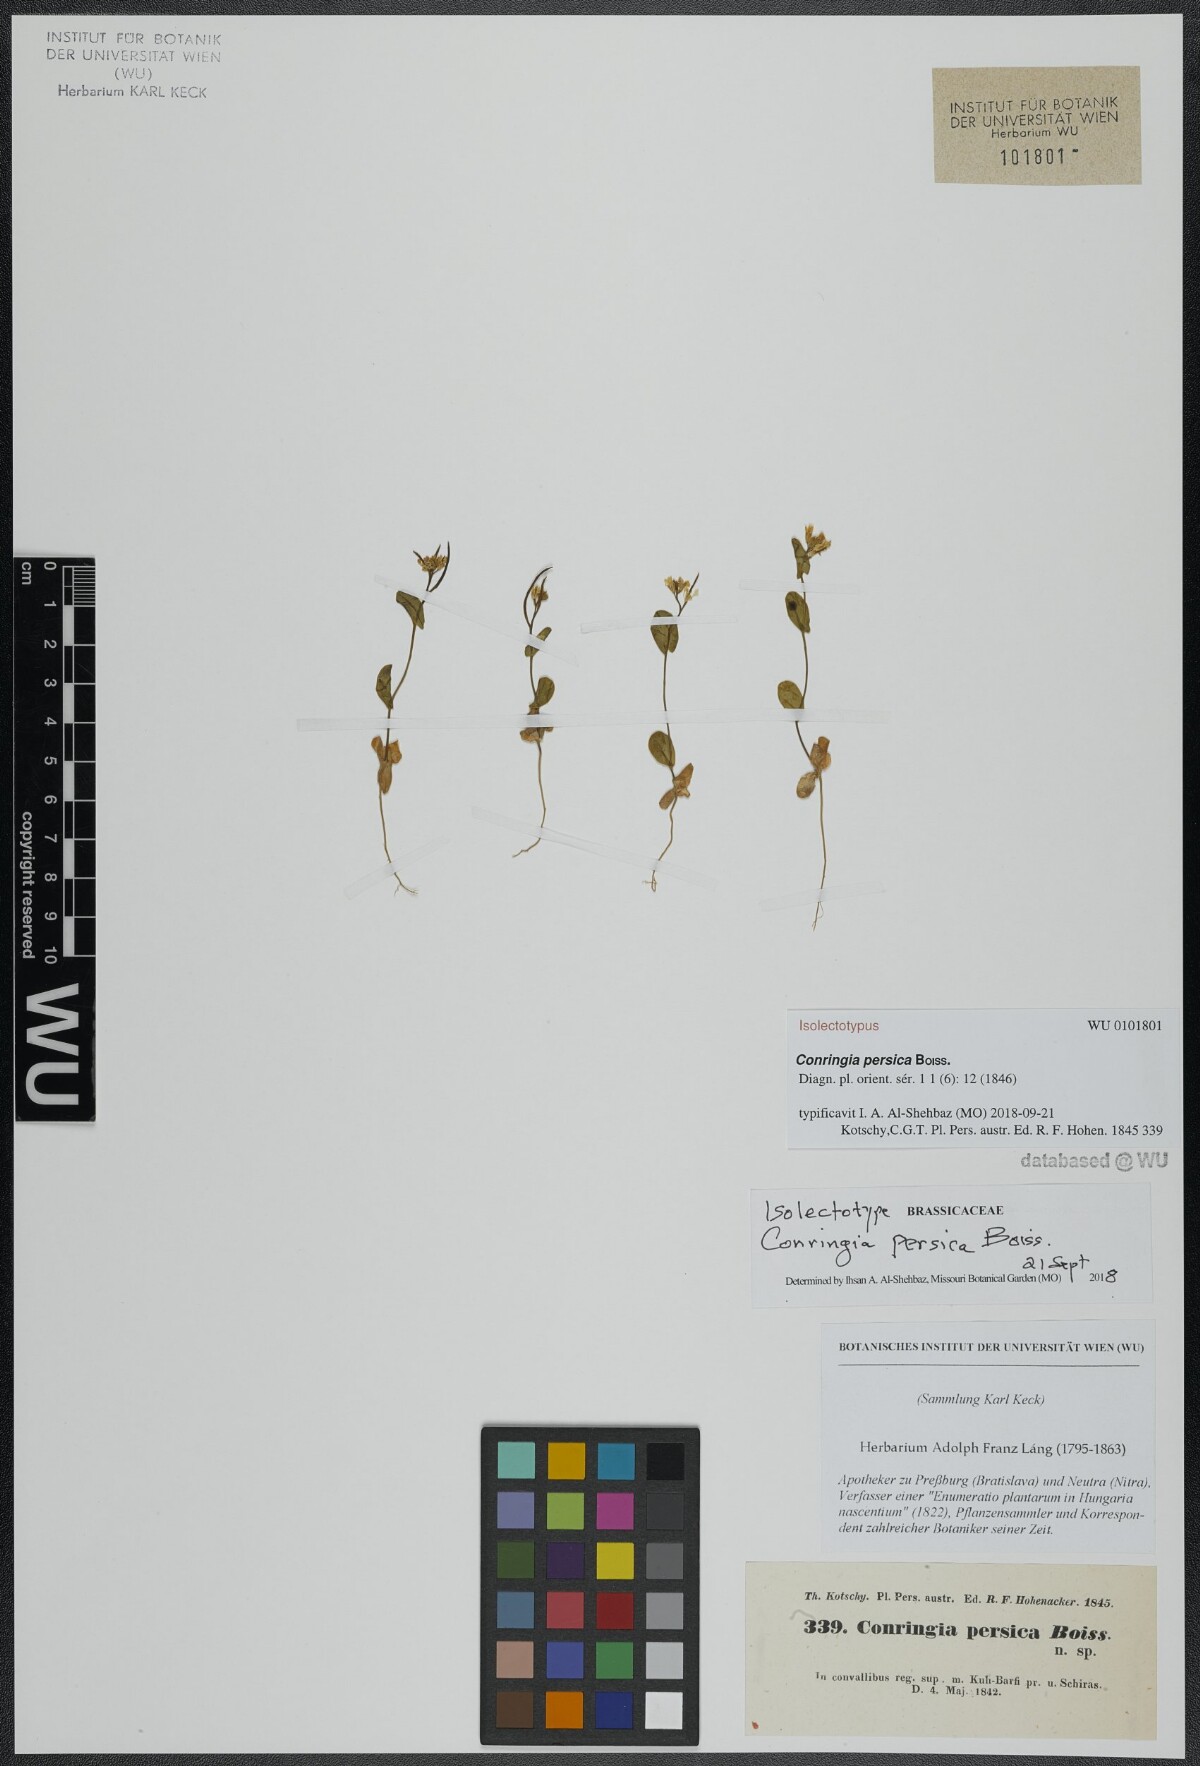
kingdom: Plantae
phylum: Tracheophyta
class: Magnoliopsida
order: Brassicales
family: Brassicaceae
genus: Conringia
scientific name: Conringia persica
